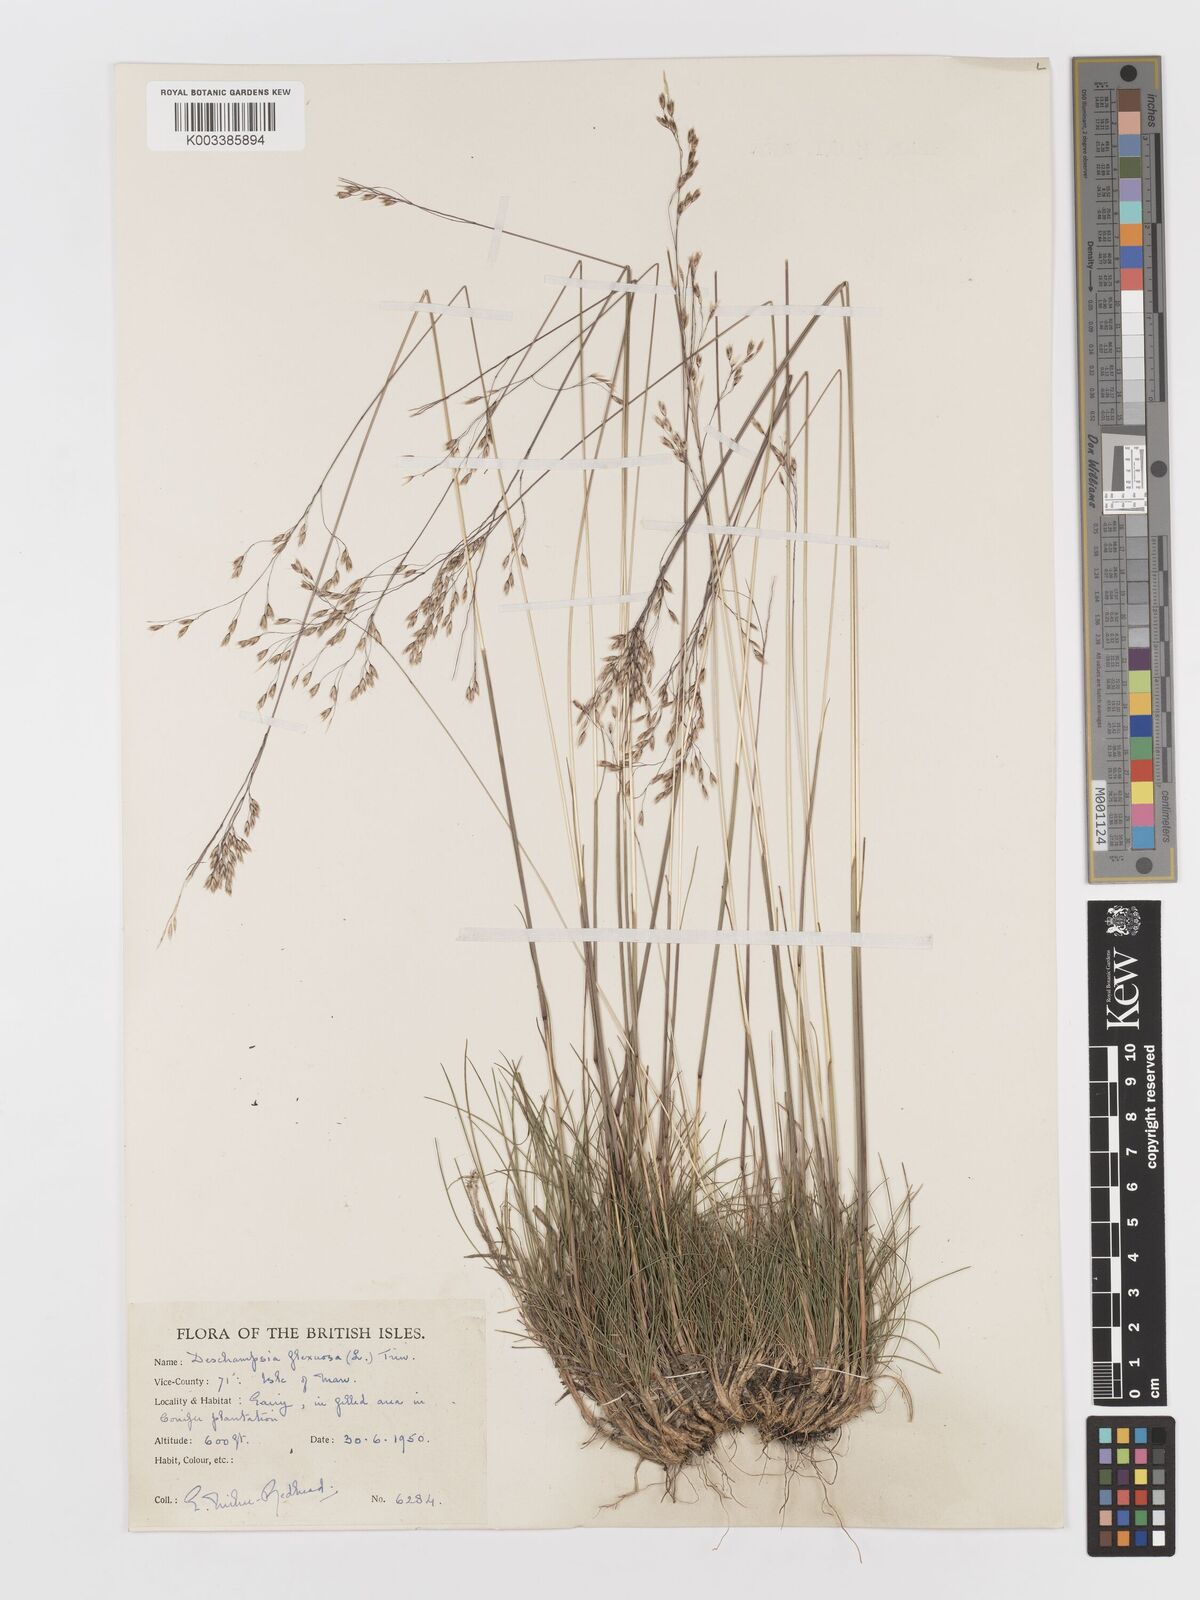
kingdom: Plantae
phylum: Tracheophyta
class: Liliopsida
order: Poales
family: Poaceae
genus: Avenella
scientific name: Avenella flexuosa
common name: Wavy hairgrass
